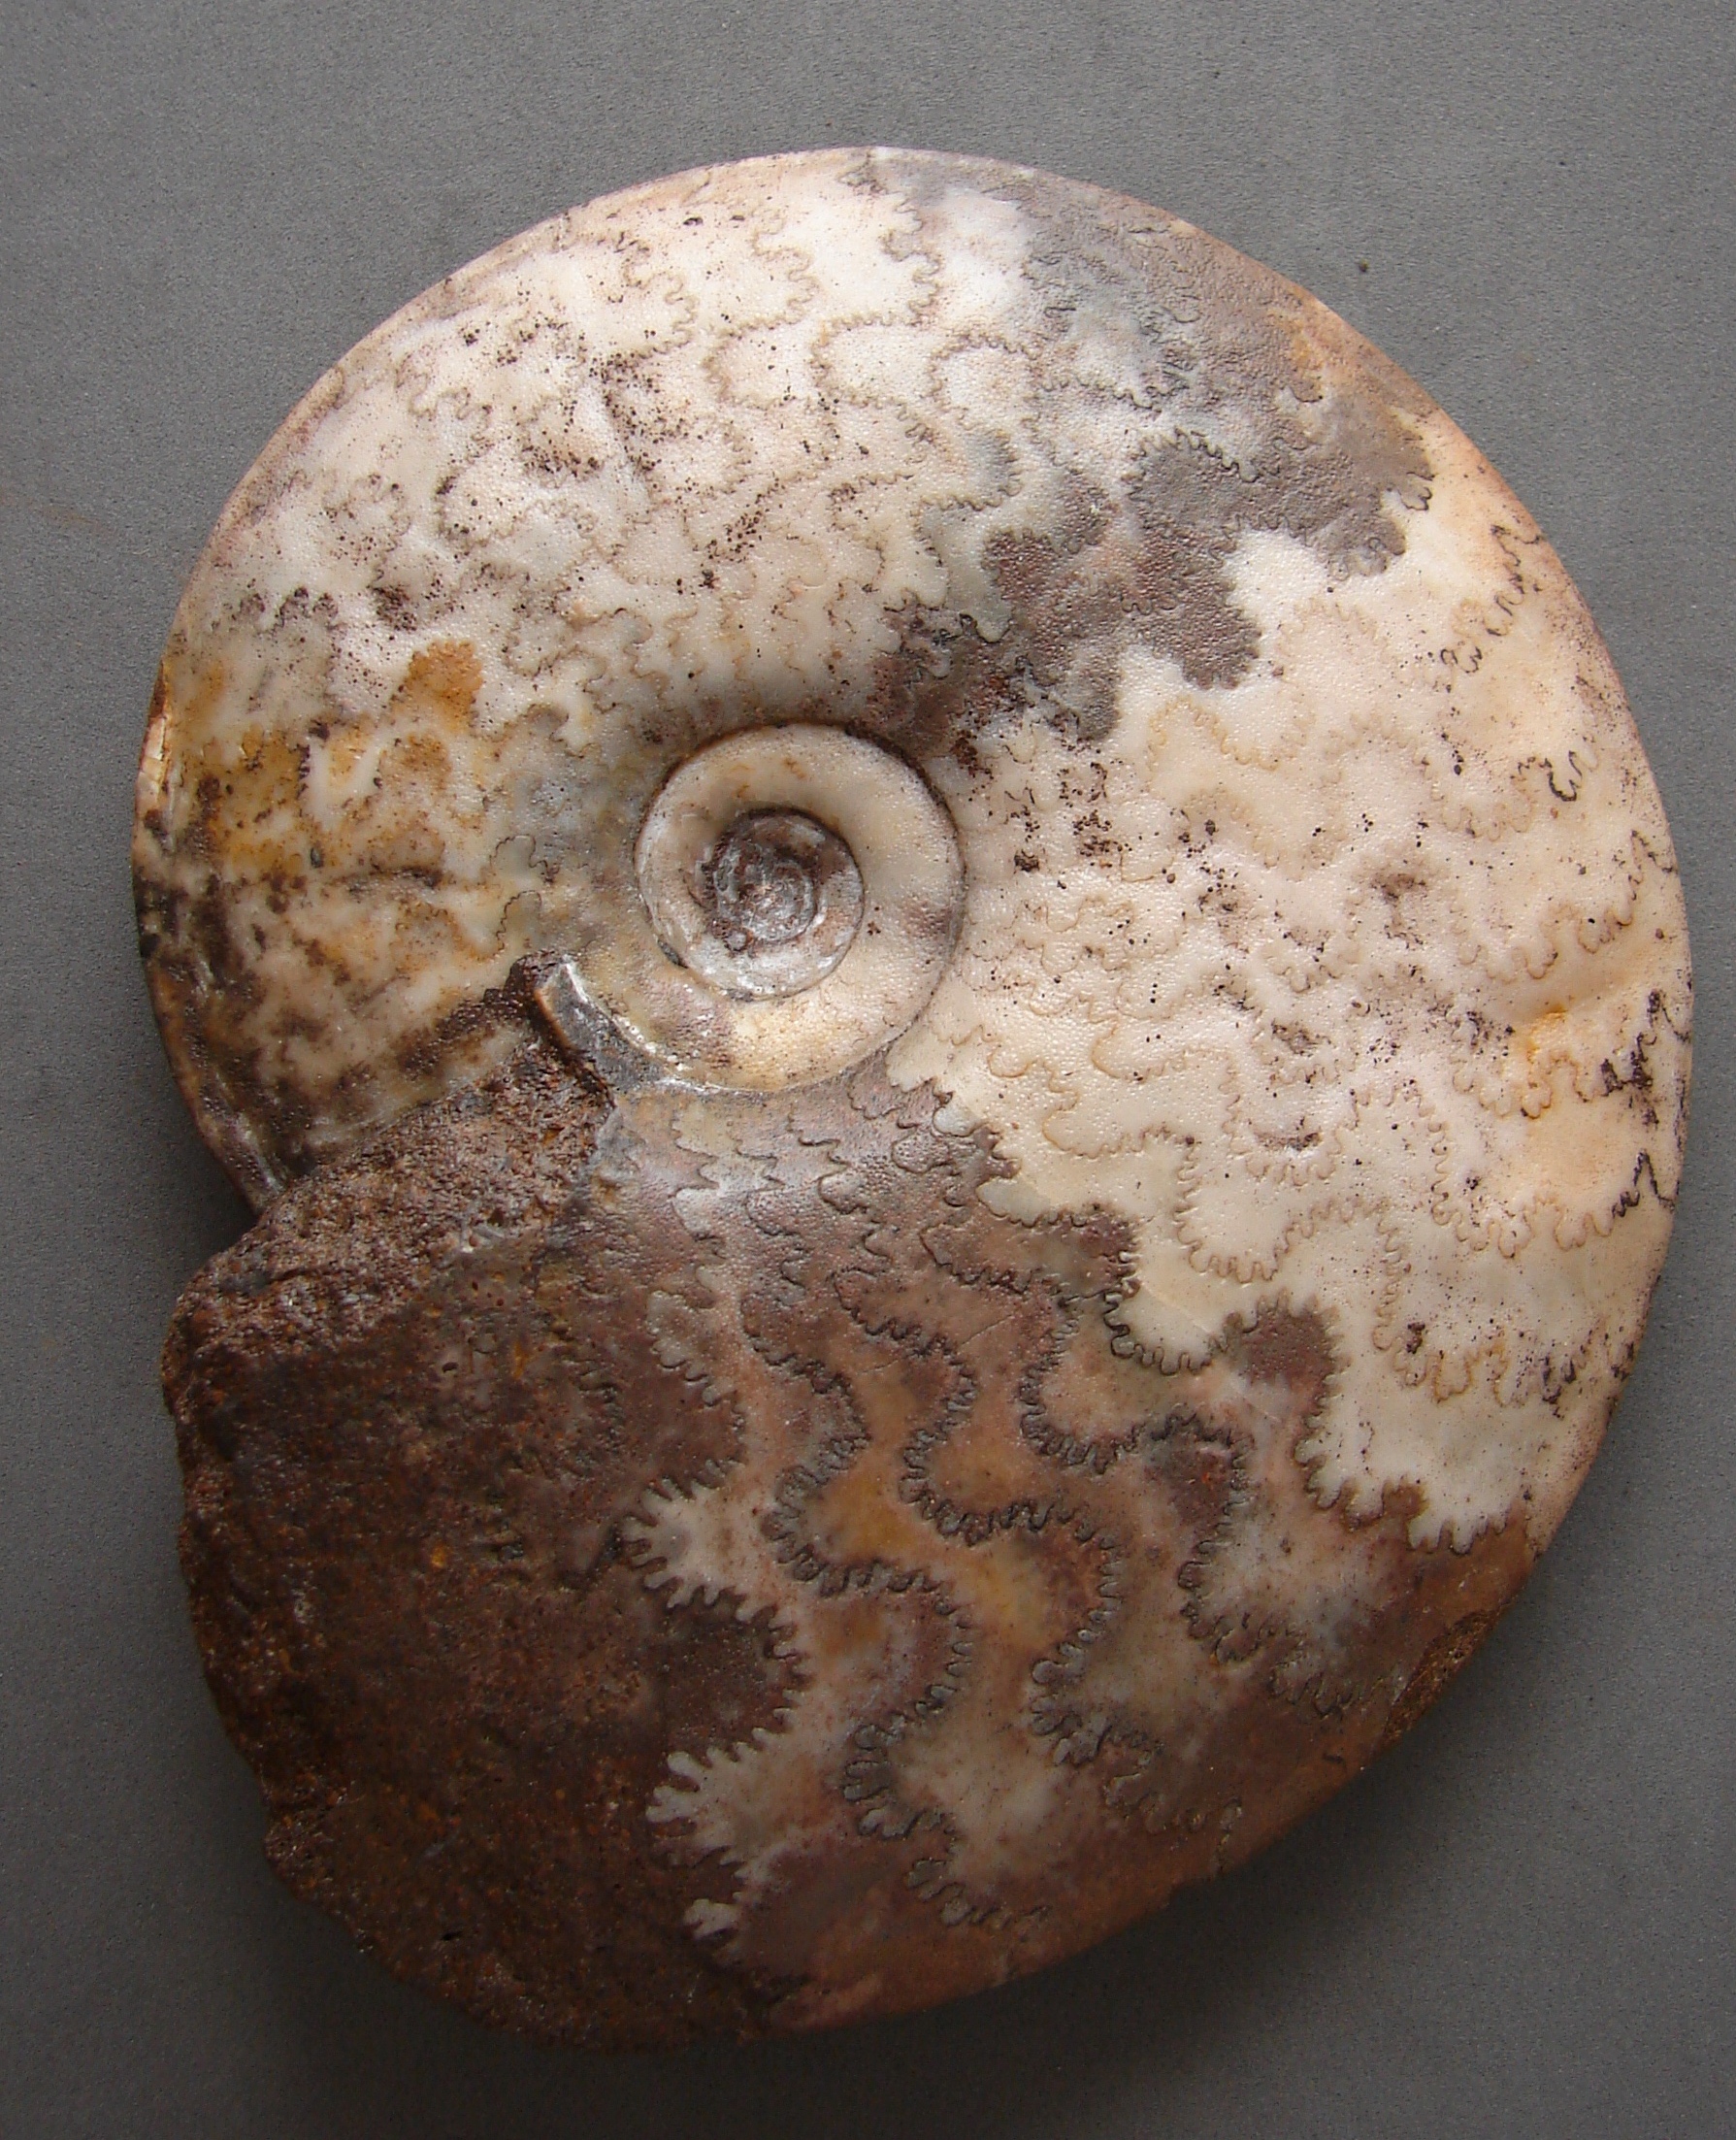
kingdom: Animalia
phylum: Mollusca
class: Cephalopoda
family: Hildoceratidae
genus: Hudlestonia
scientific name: Hudlestonia serrodens
